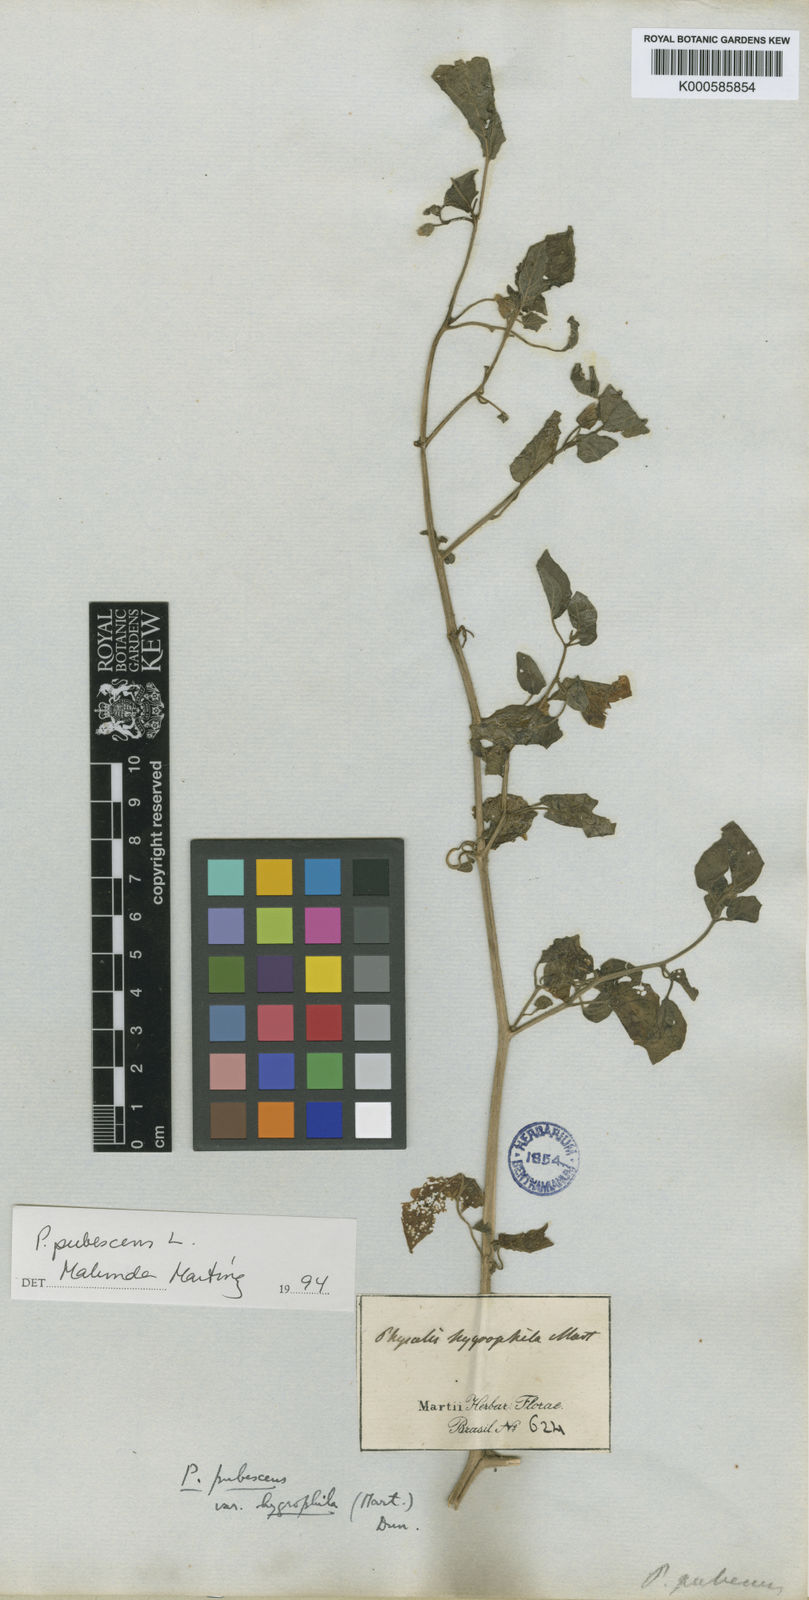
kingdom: Plantae
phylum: Tracheophyta
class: Magnoliopsida
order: Solanales
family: Solanaceae
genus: Physalis
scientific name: Physalis pubescens
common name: Downy ground-cherry
